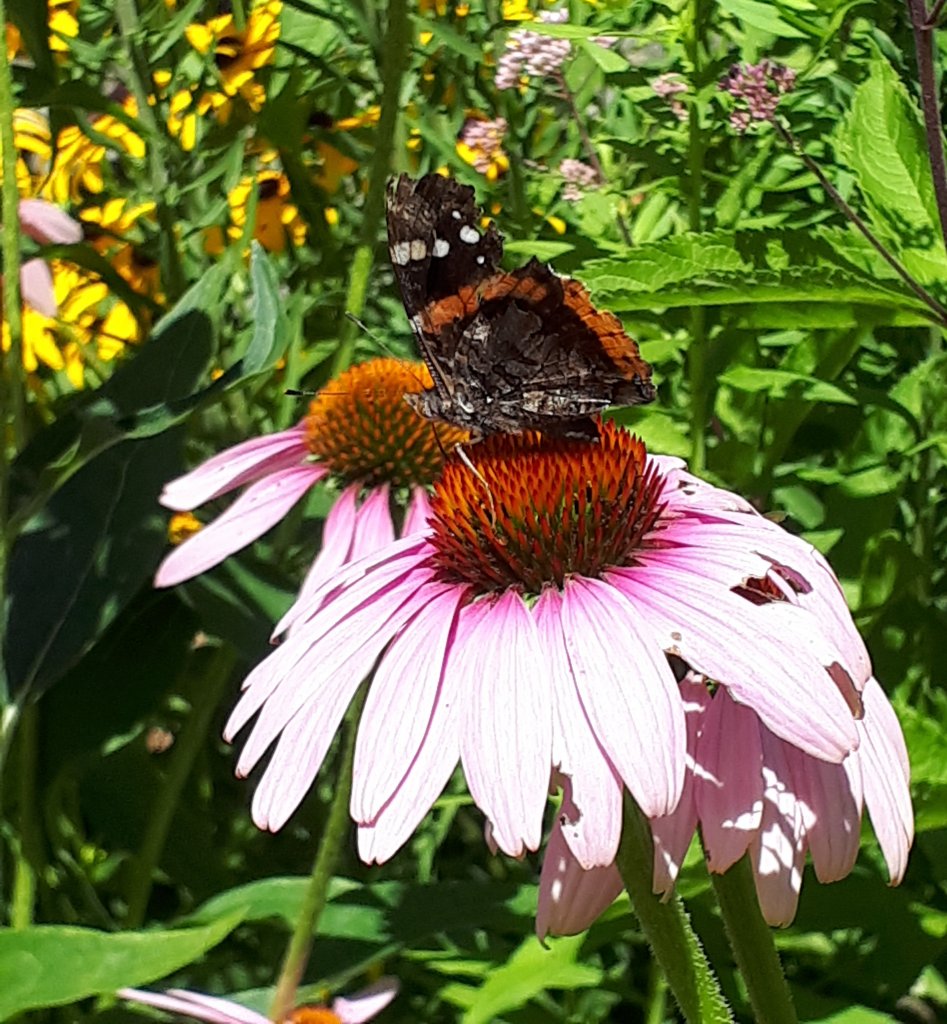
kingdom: Animalia
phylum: Arthropoda
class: Insecta
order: Lepidoptera
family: Nymphalidae
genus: Vanessa
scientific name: Vanessa atalanta
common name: Red Admiral
